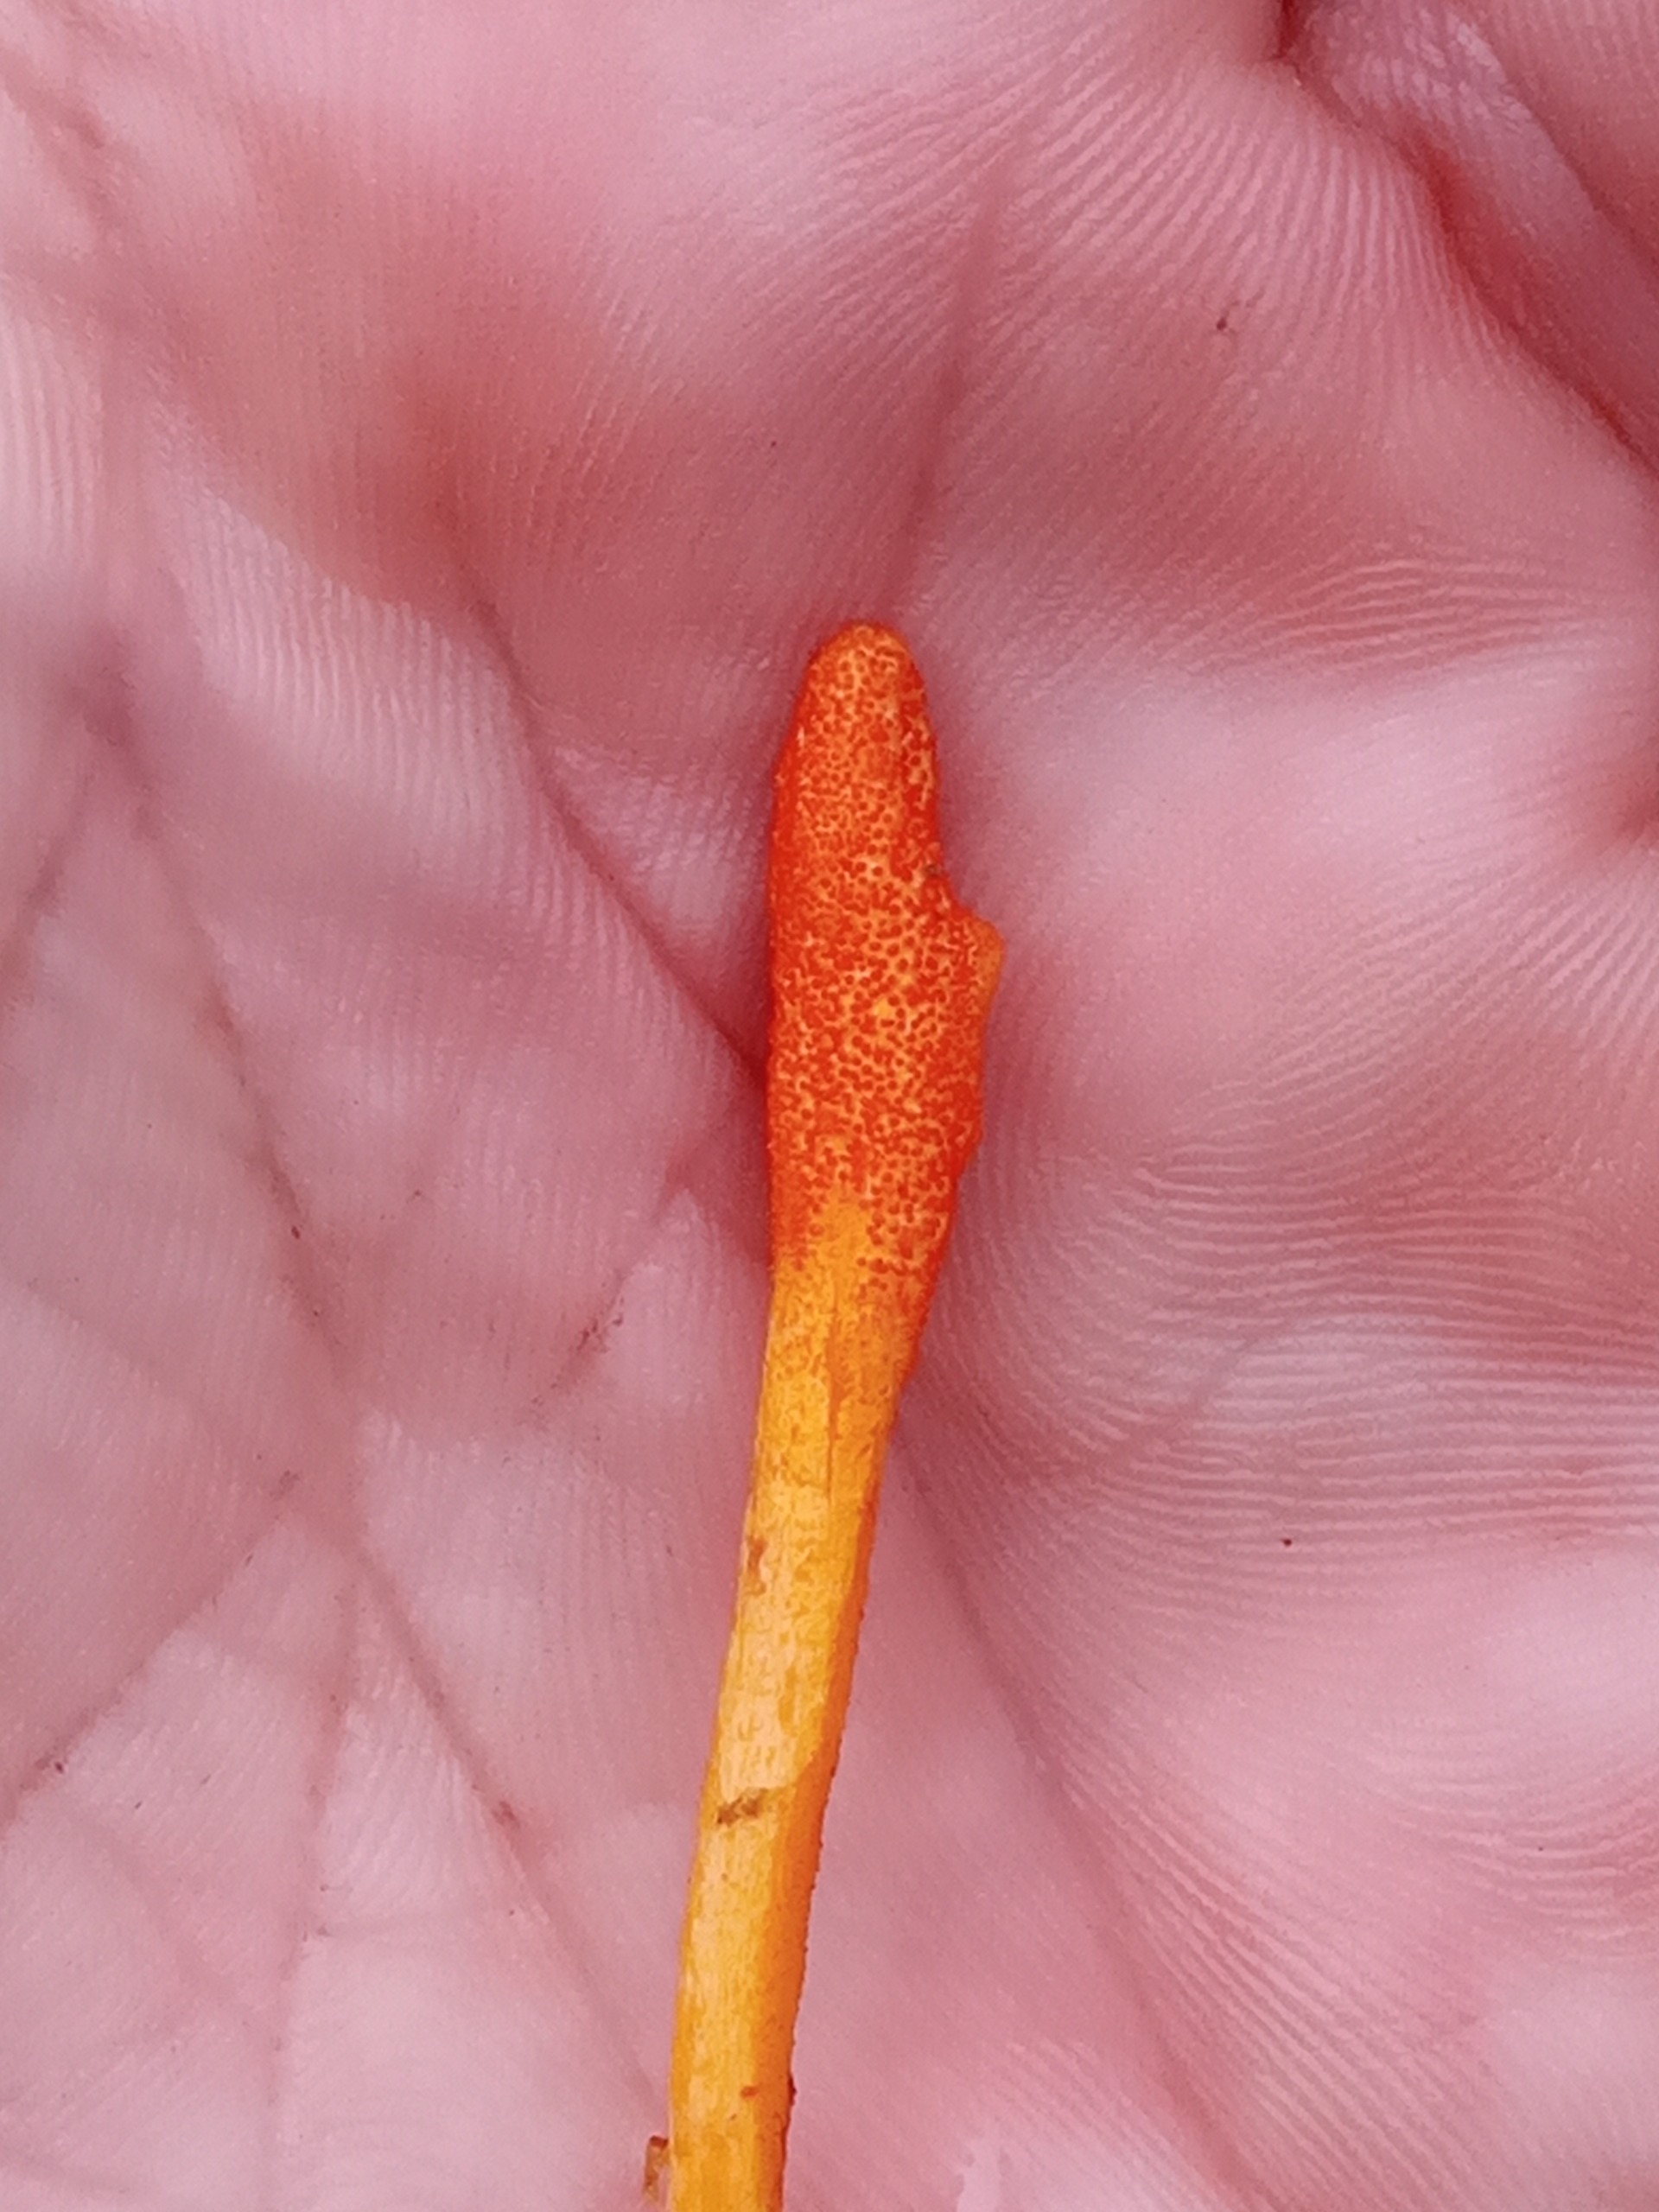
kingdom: Fungi
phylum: Ascomycota
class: Sordariomycetes
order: Hypocreales
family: Cordycipitaceae
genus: Cordyceps
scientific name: Cordyceps militaris
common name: Puppe-snyltekølle
